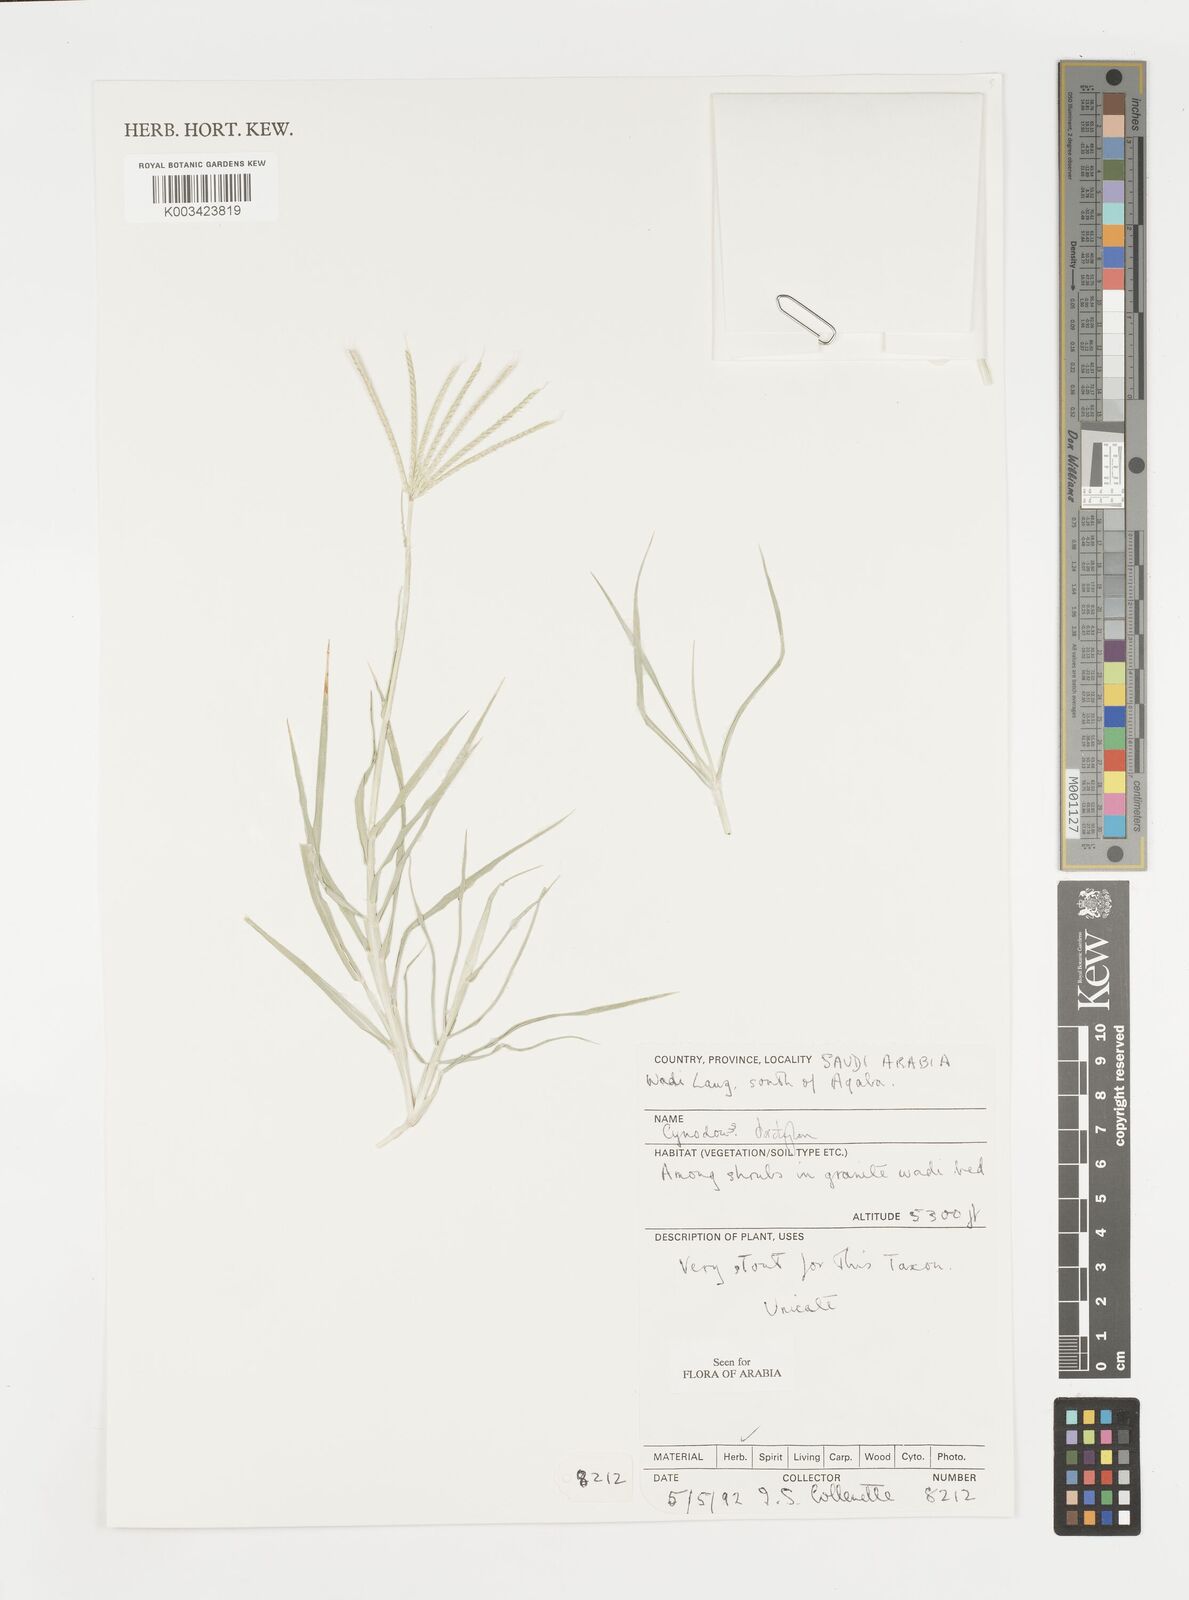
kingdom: Plantae
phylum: Tracheophyta
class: Liliopsida
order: Poales
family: Poaceae
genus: Cynodon
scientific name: Cynodon dactylon
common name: Bermuda grass
